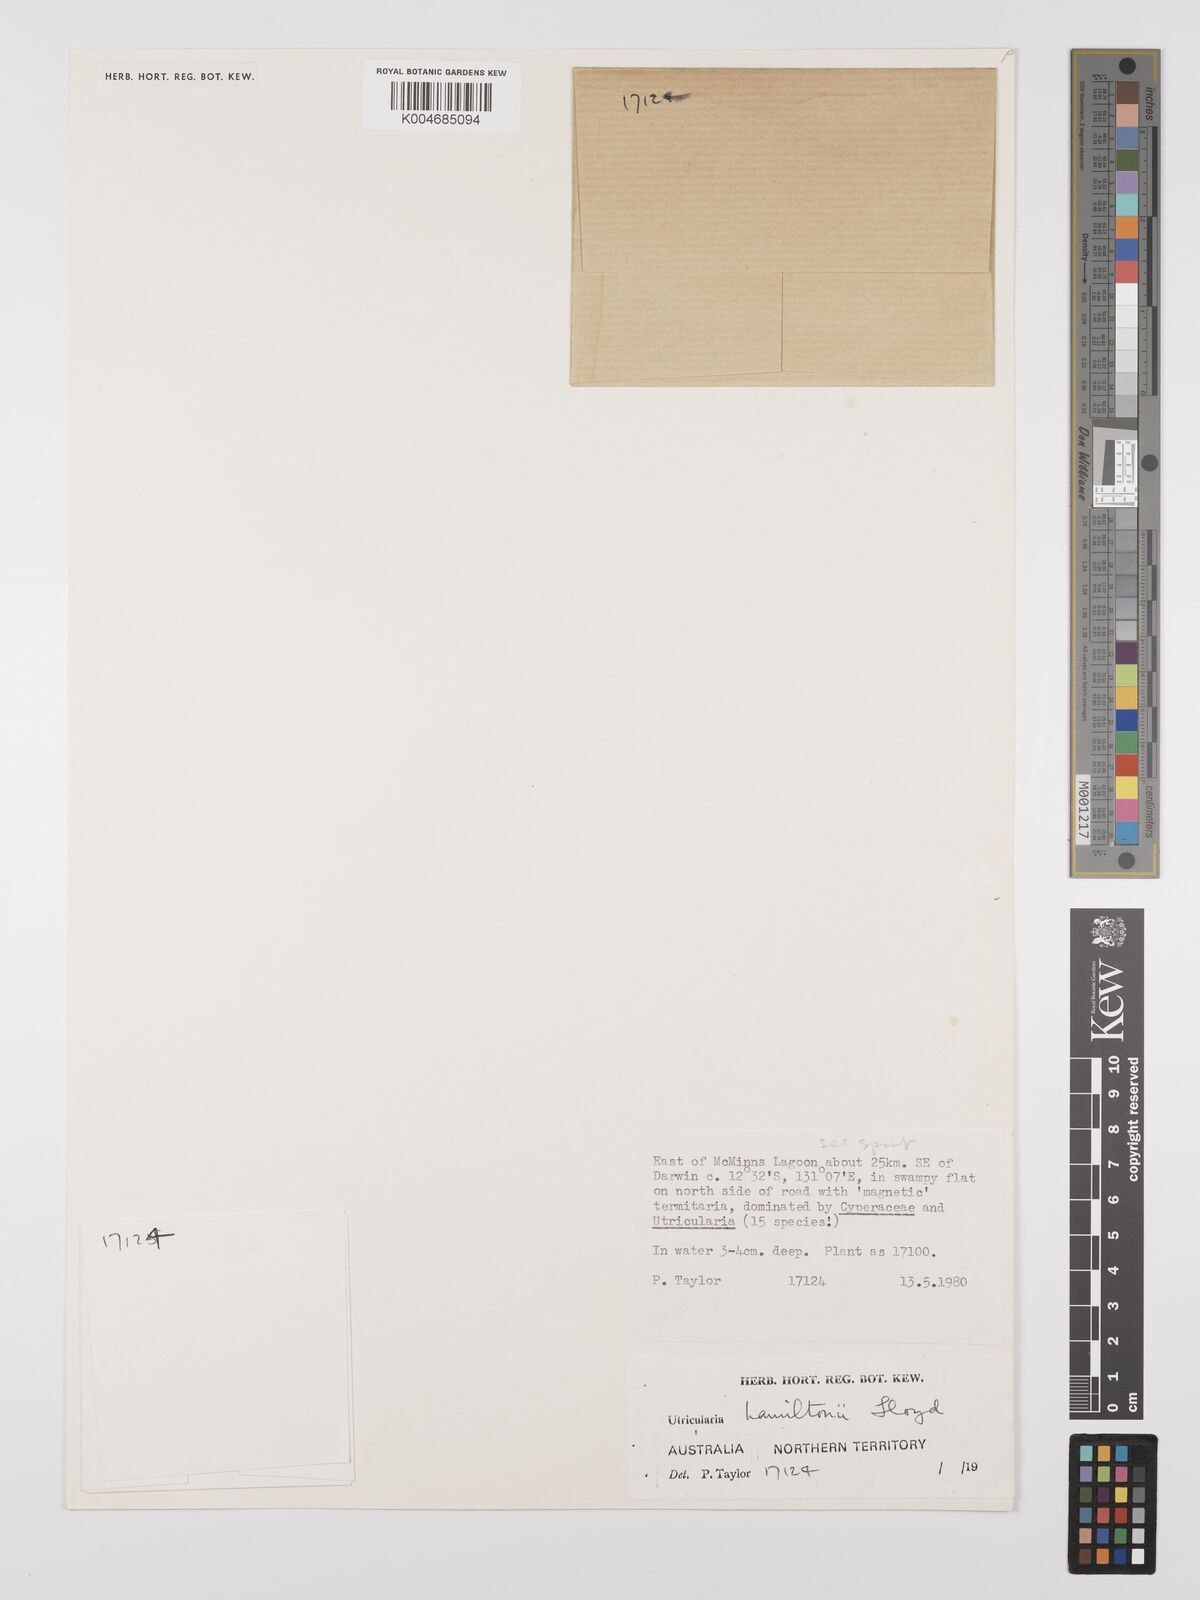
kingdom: Plantae
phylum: Tracheophyta
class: Magnoliopsida
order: Lamiales
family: Lentibulariaceae
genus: Utricularia
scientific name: Utricularia hamiltonii
